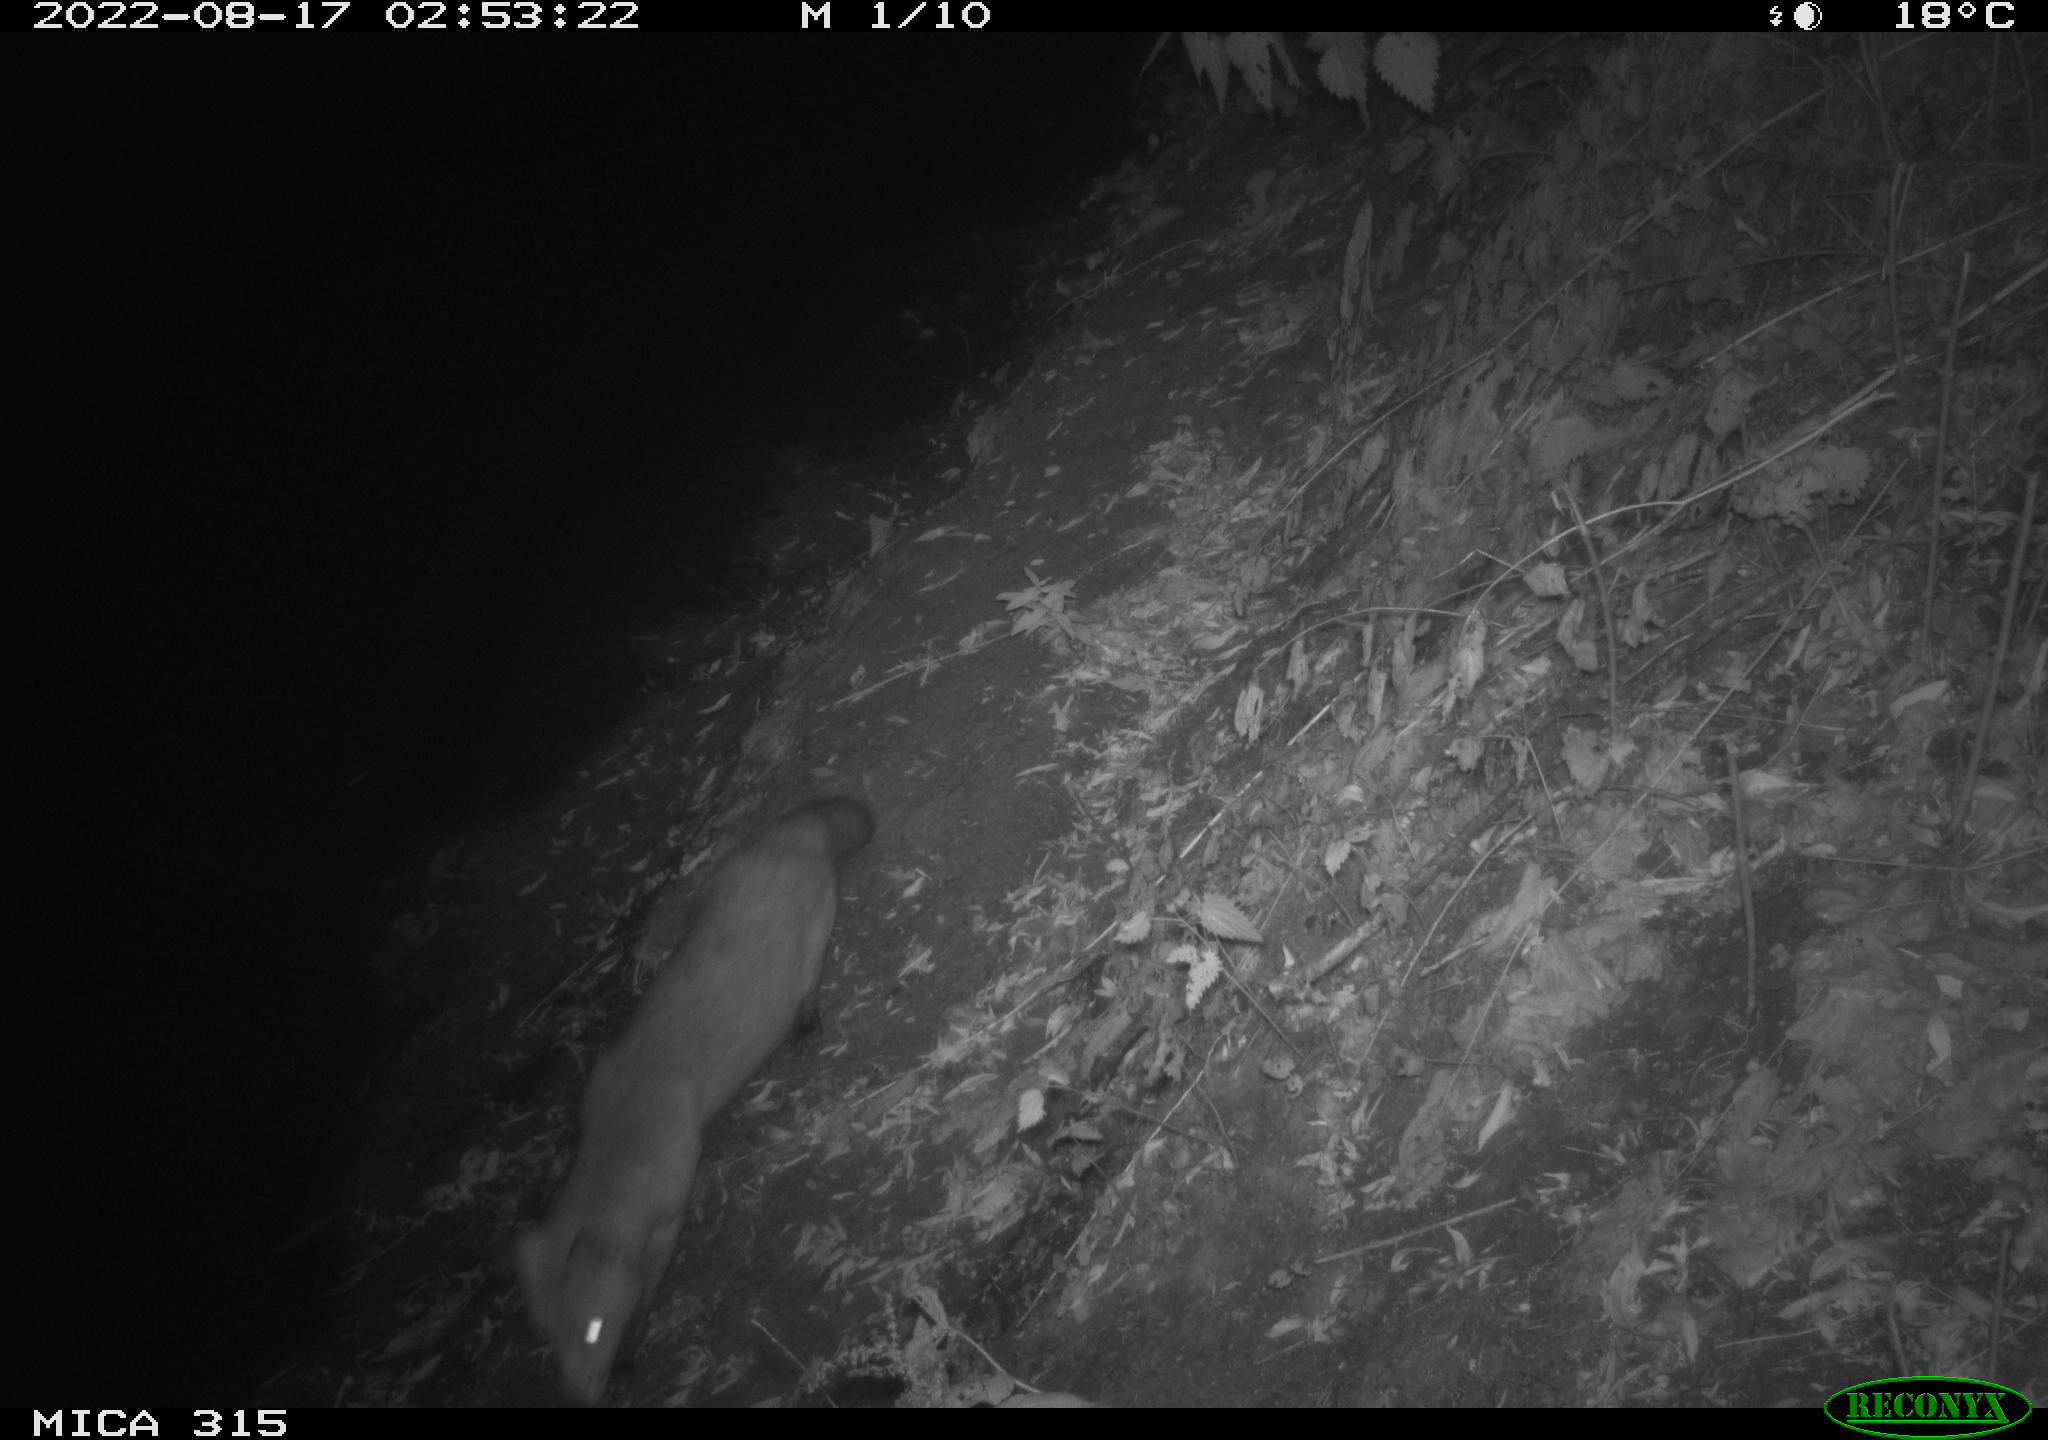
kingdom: Animalia
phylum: Chordata
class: Mammalia
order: Carnivora
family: Canidae
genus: Vulpes
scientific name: Vulpes vulpes
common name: Red fox
